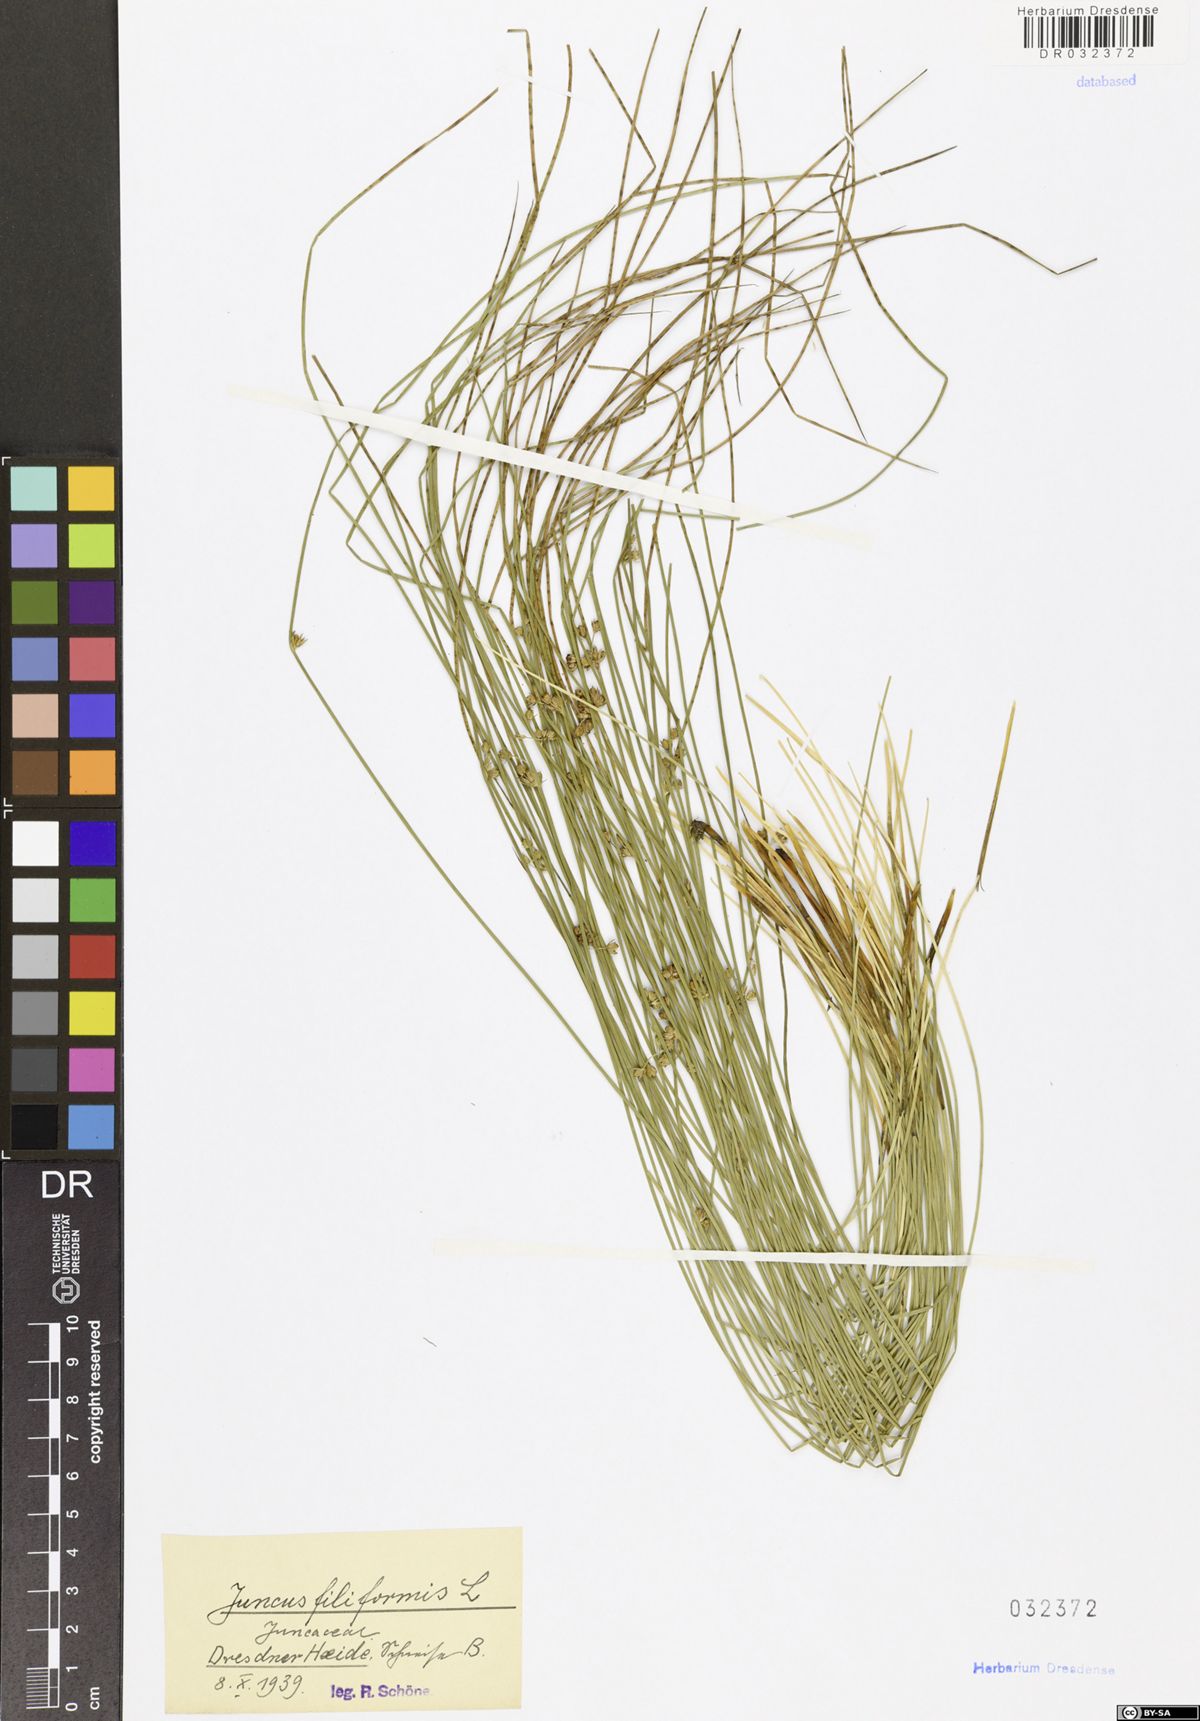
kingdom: Plantae
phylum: Tracheophyta
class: Liliopsida
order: Poales
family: Juncaceae
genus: Juncus
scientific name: Juncus inflexus
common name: Hard rush
